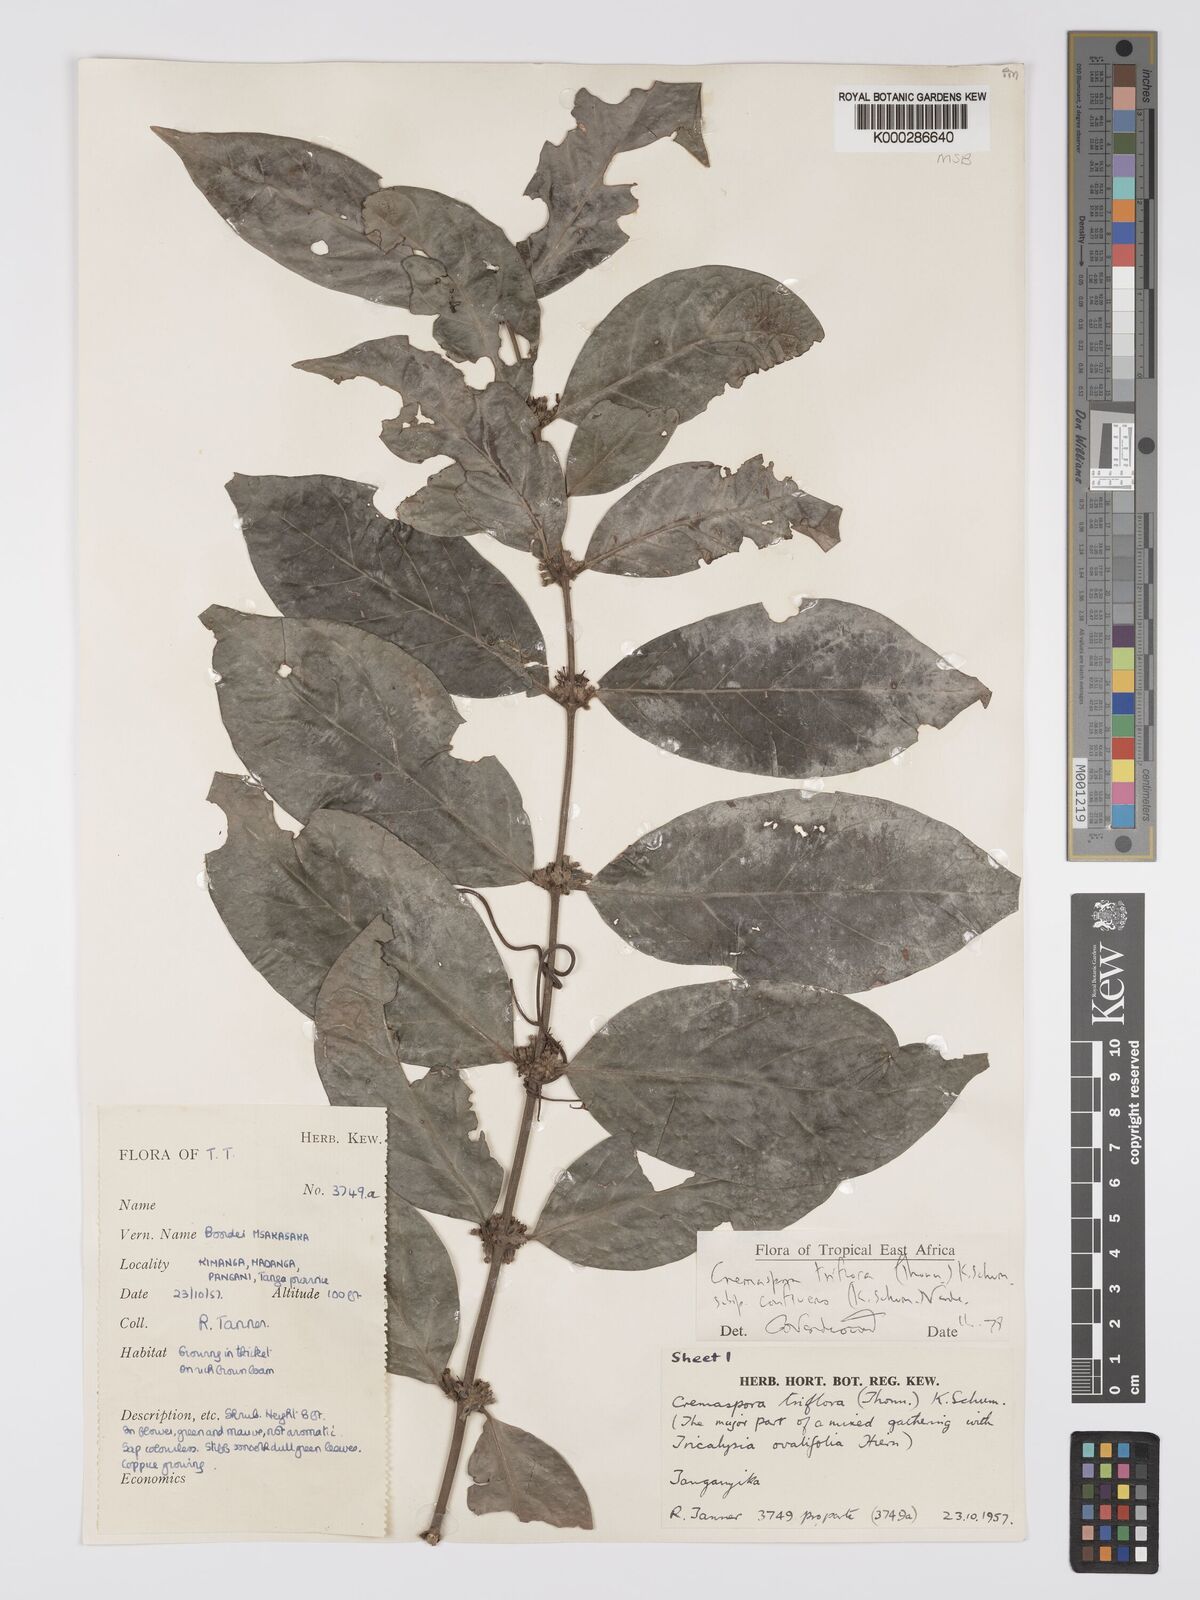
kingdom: Plantae
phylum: Tracheophyta
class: Magnoliopsida
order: Gentianales
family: Rubiaceae
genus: Cremaspora
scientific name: Cremaspora triflora
